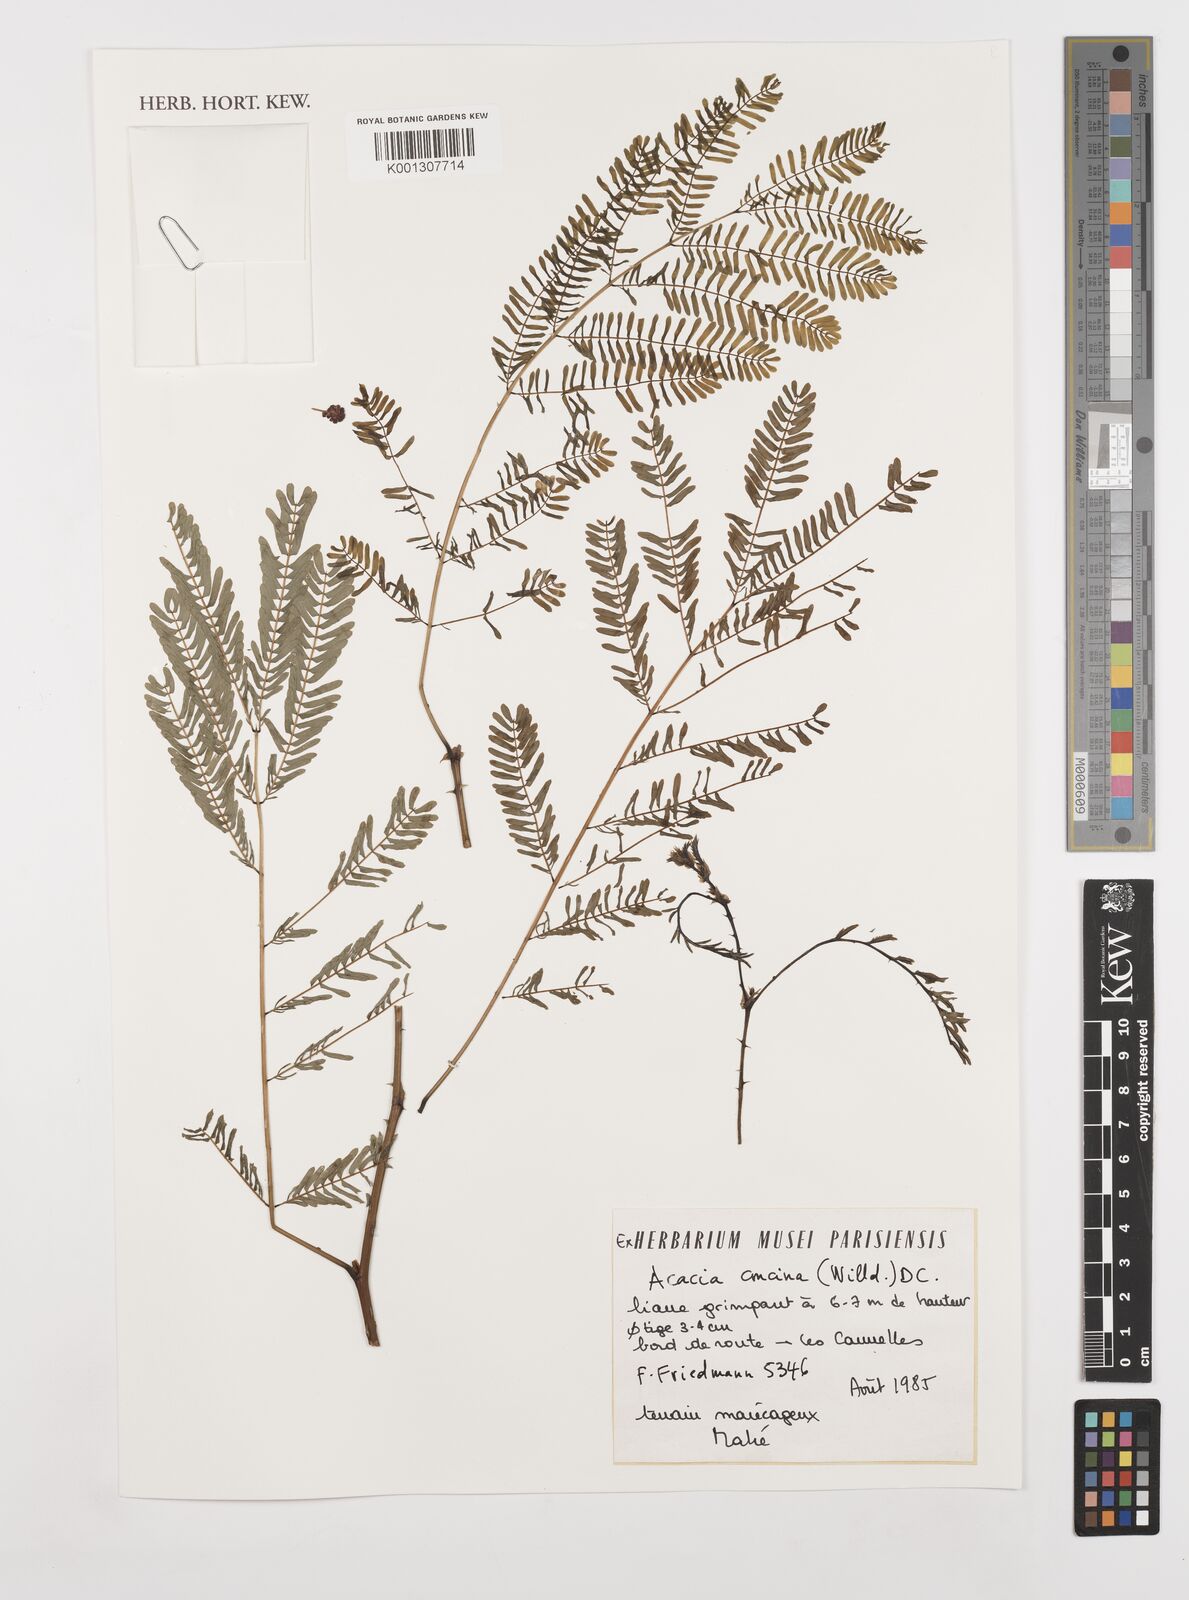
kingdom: Plantae
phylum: Tracheophyta
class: Magnoliopsida
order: Fabales
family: Fabaceae
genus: Senegalia
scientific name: Senegalia rugata
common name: Soap-pod
